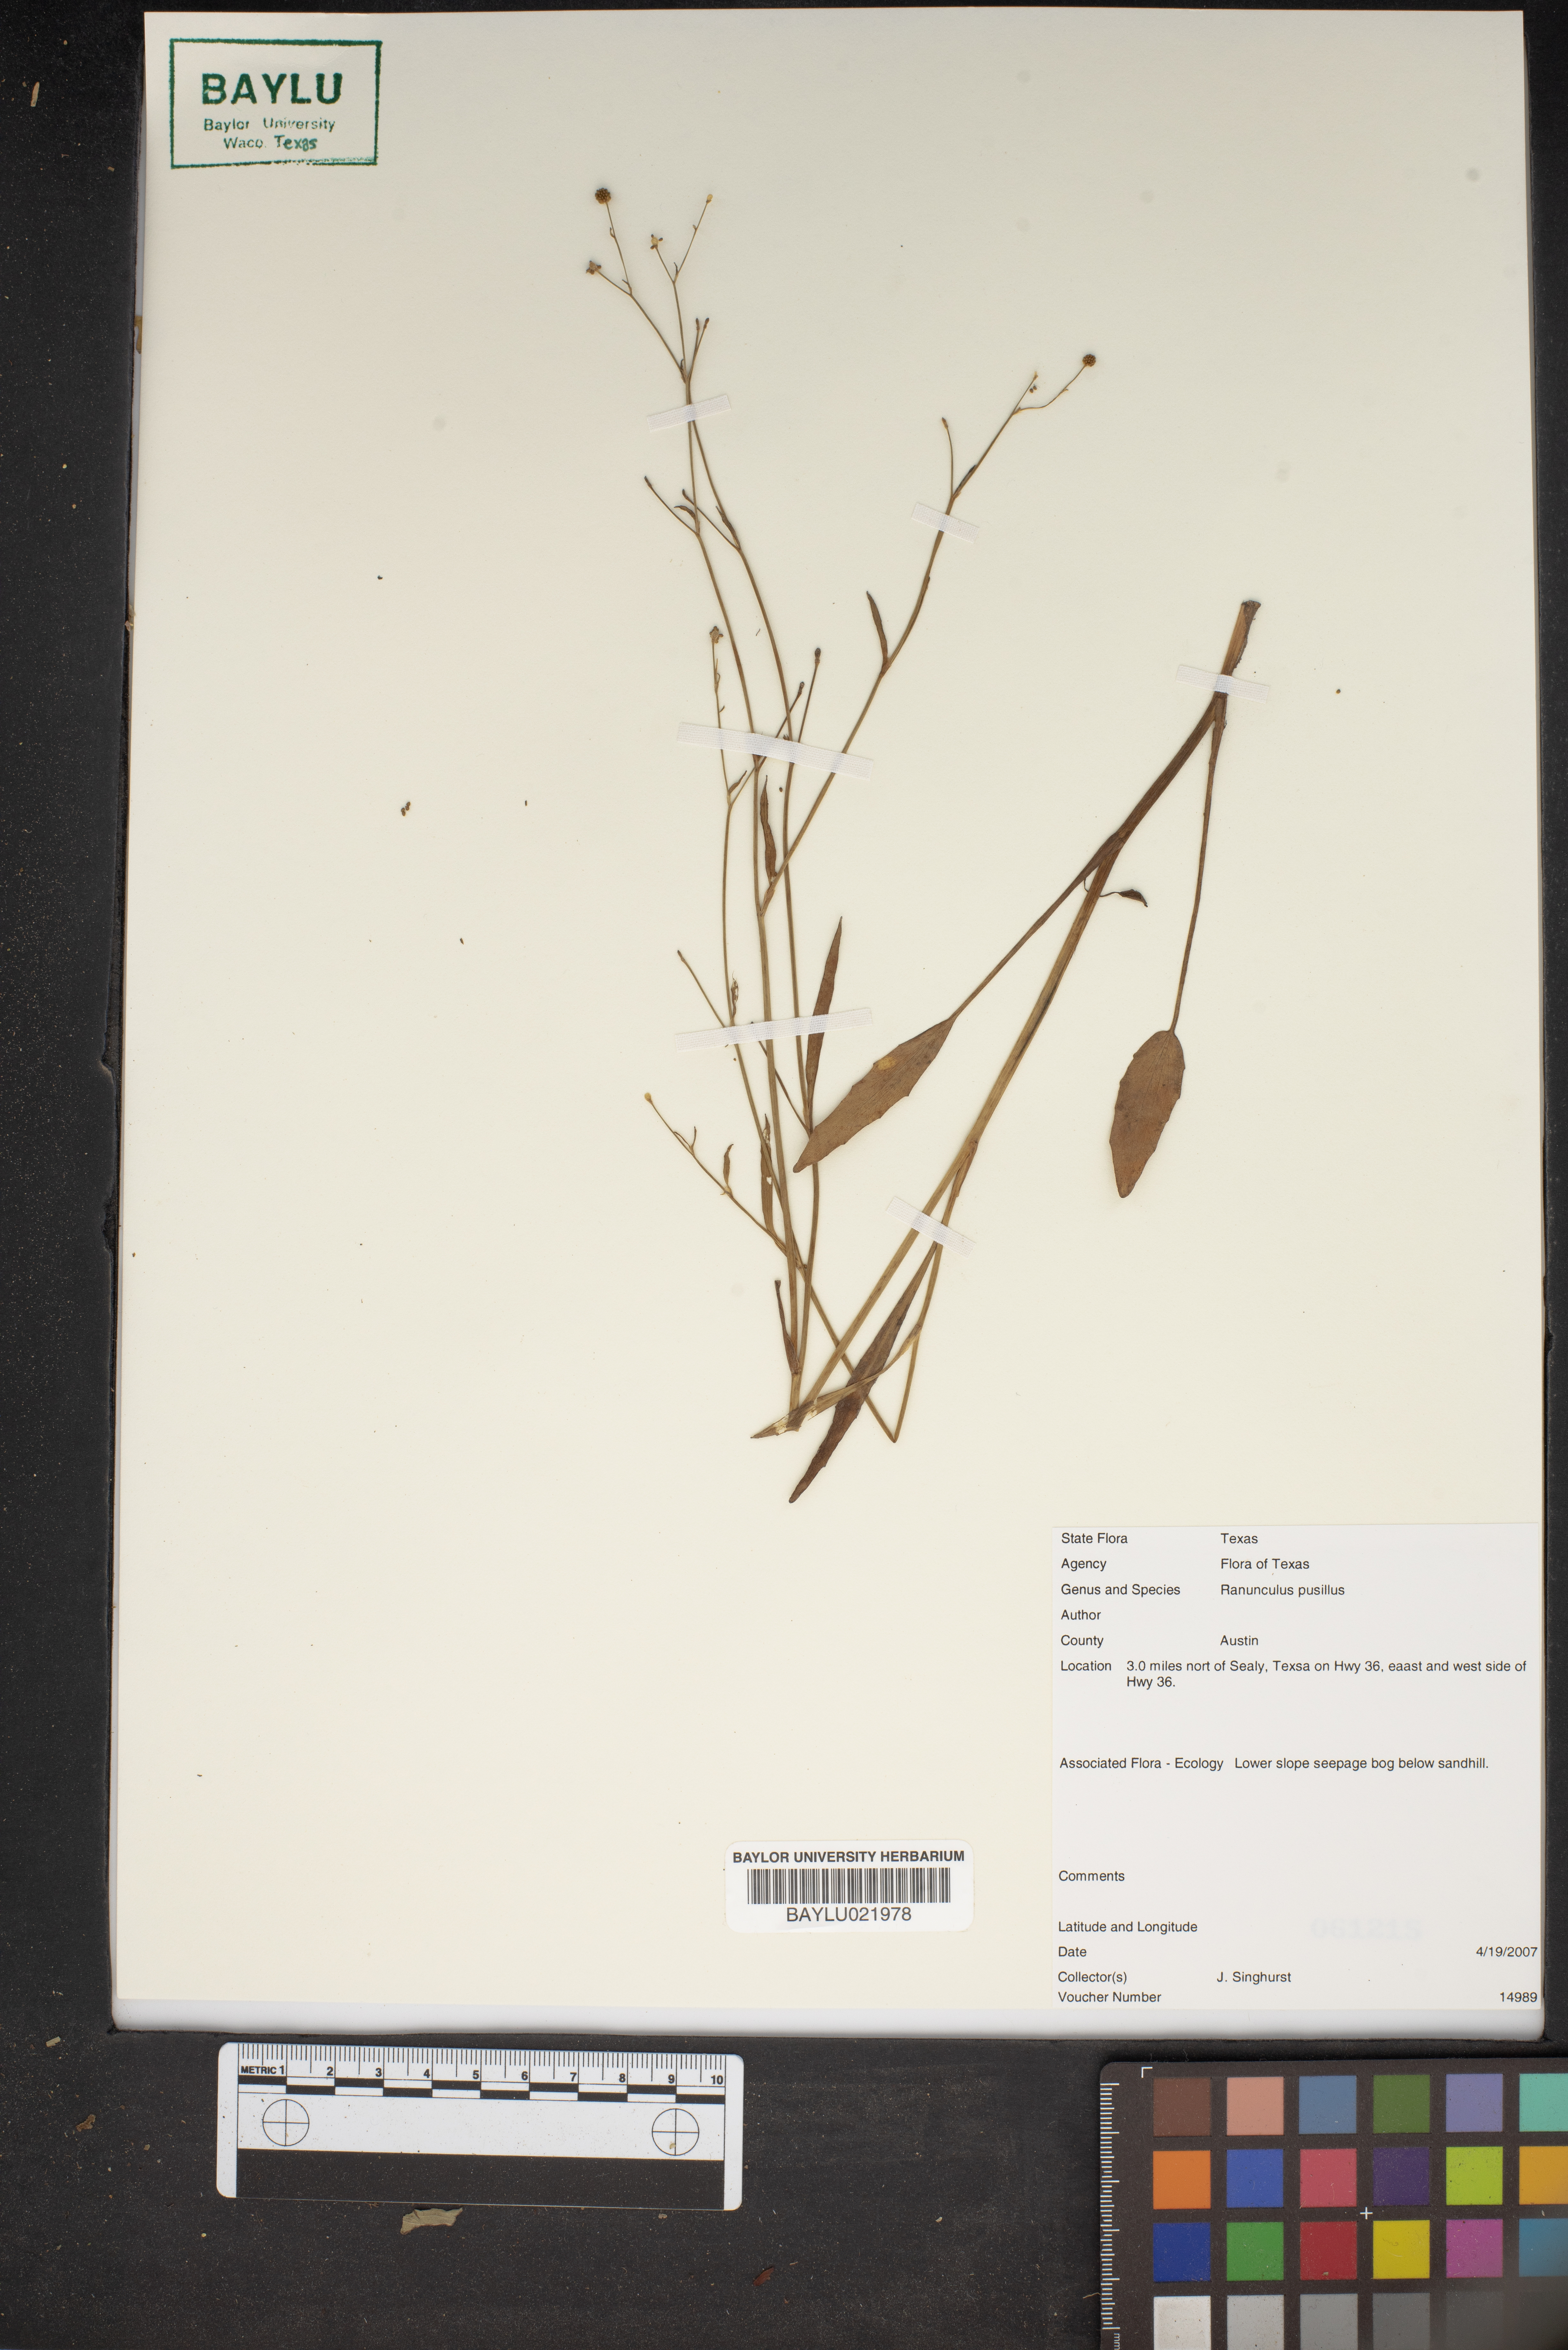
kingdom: Plantae
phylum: Tracheophyta
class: Magnoliopsida
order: Ranunculales
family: Ranunculaceae
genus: Ranunculus
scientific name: Ranunculus pusillus
